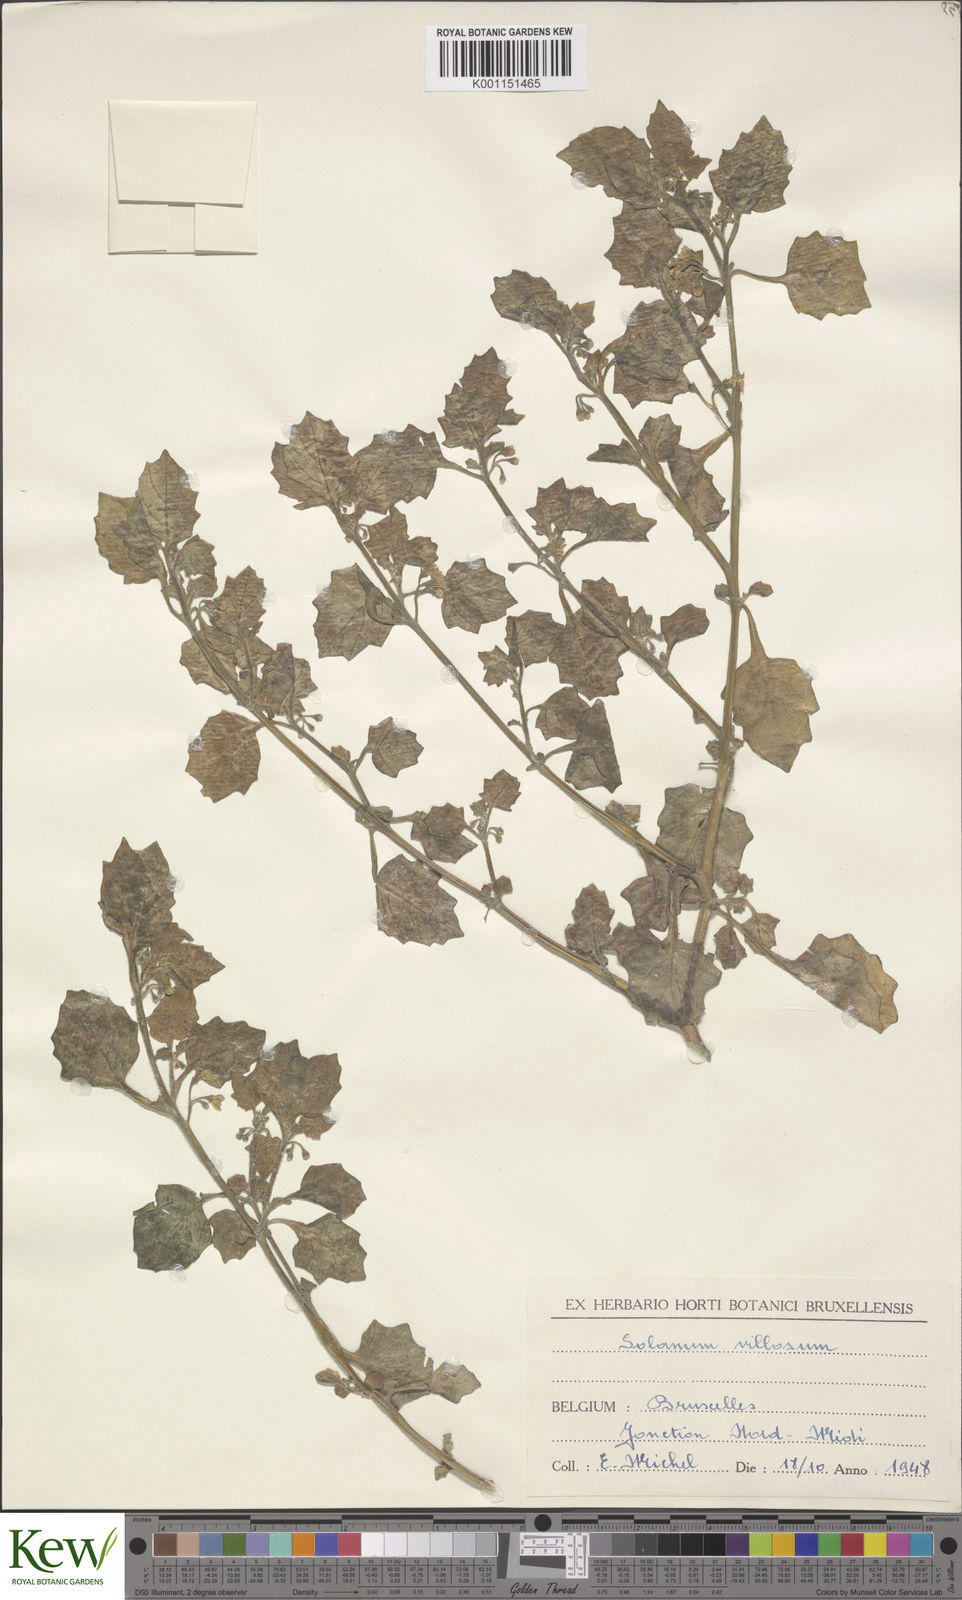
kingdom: Plantae
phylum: Tracheophyta
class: Magnoliopsida
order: Solanales
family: Solanaceae
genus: Solanum
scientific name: Solanum villosum
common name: Red nightshade
